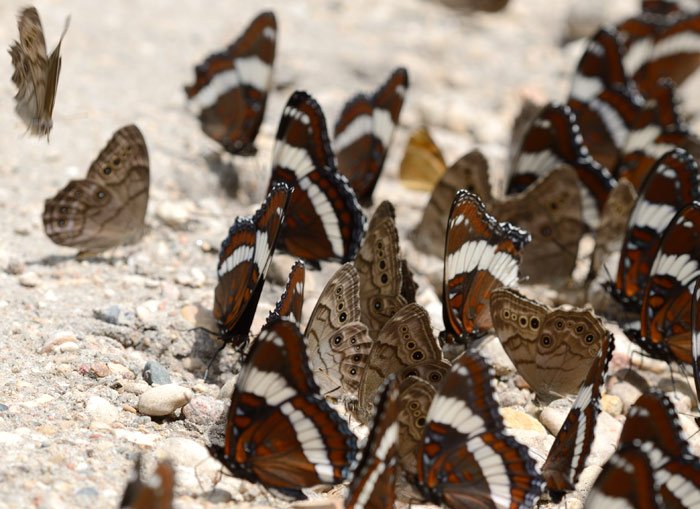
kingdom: Animalia
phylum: Arthropoda
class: Insecta
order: Lepidoptera
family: Nymphalidae
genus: Lethe
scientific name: Lethe anthedon
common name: Northern Pearly-Eye
